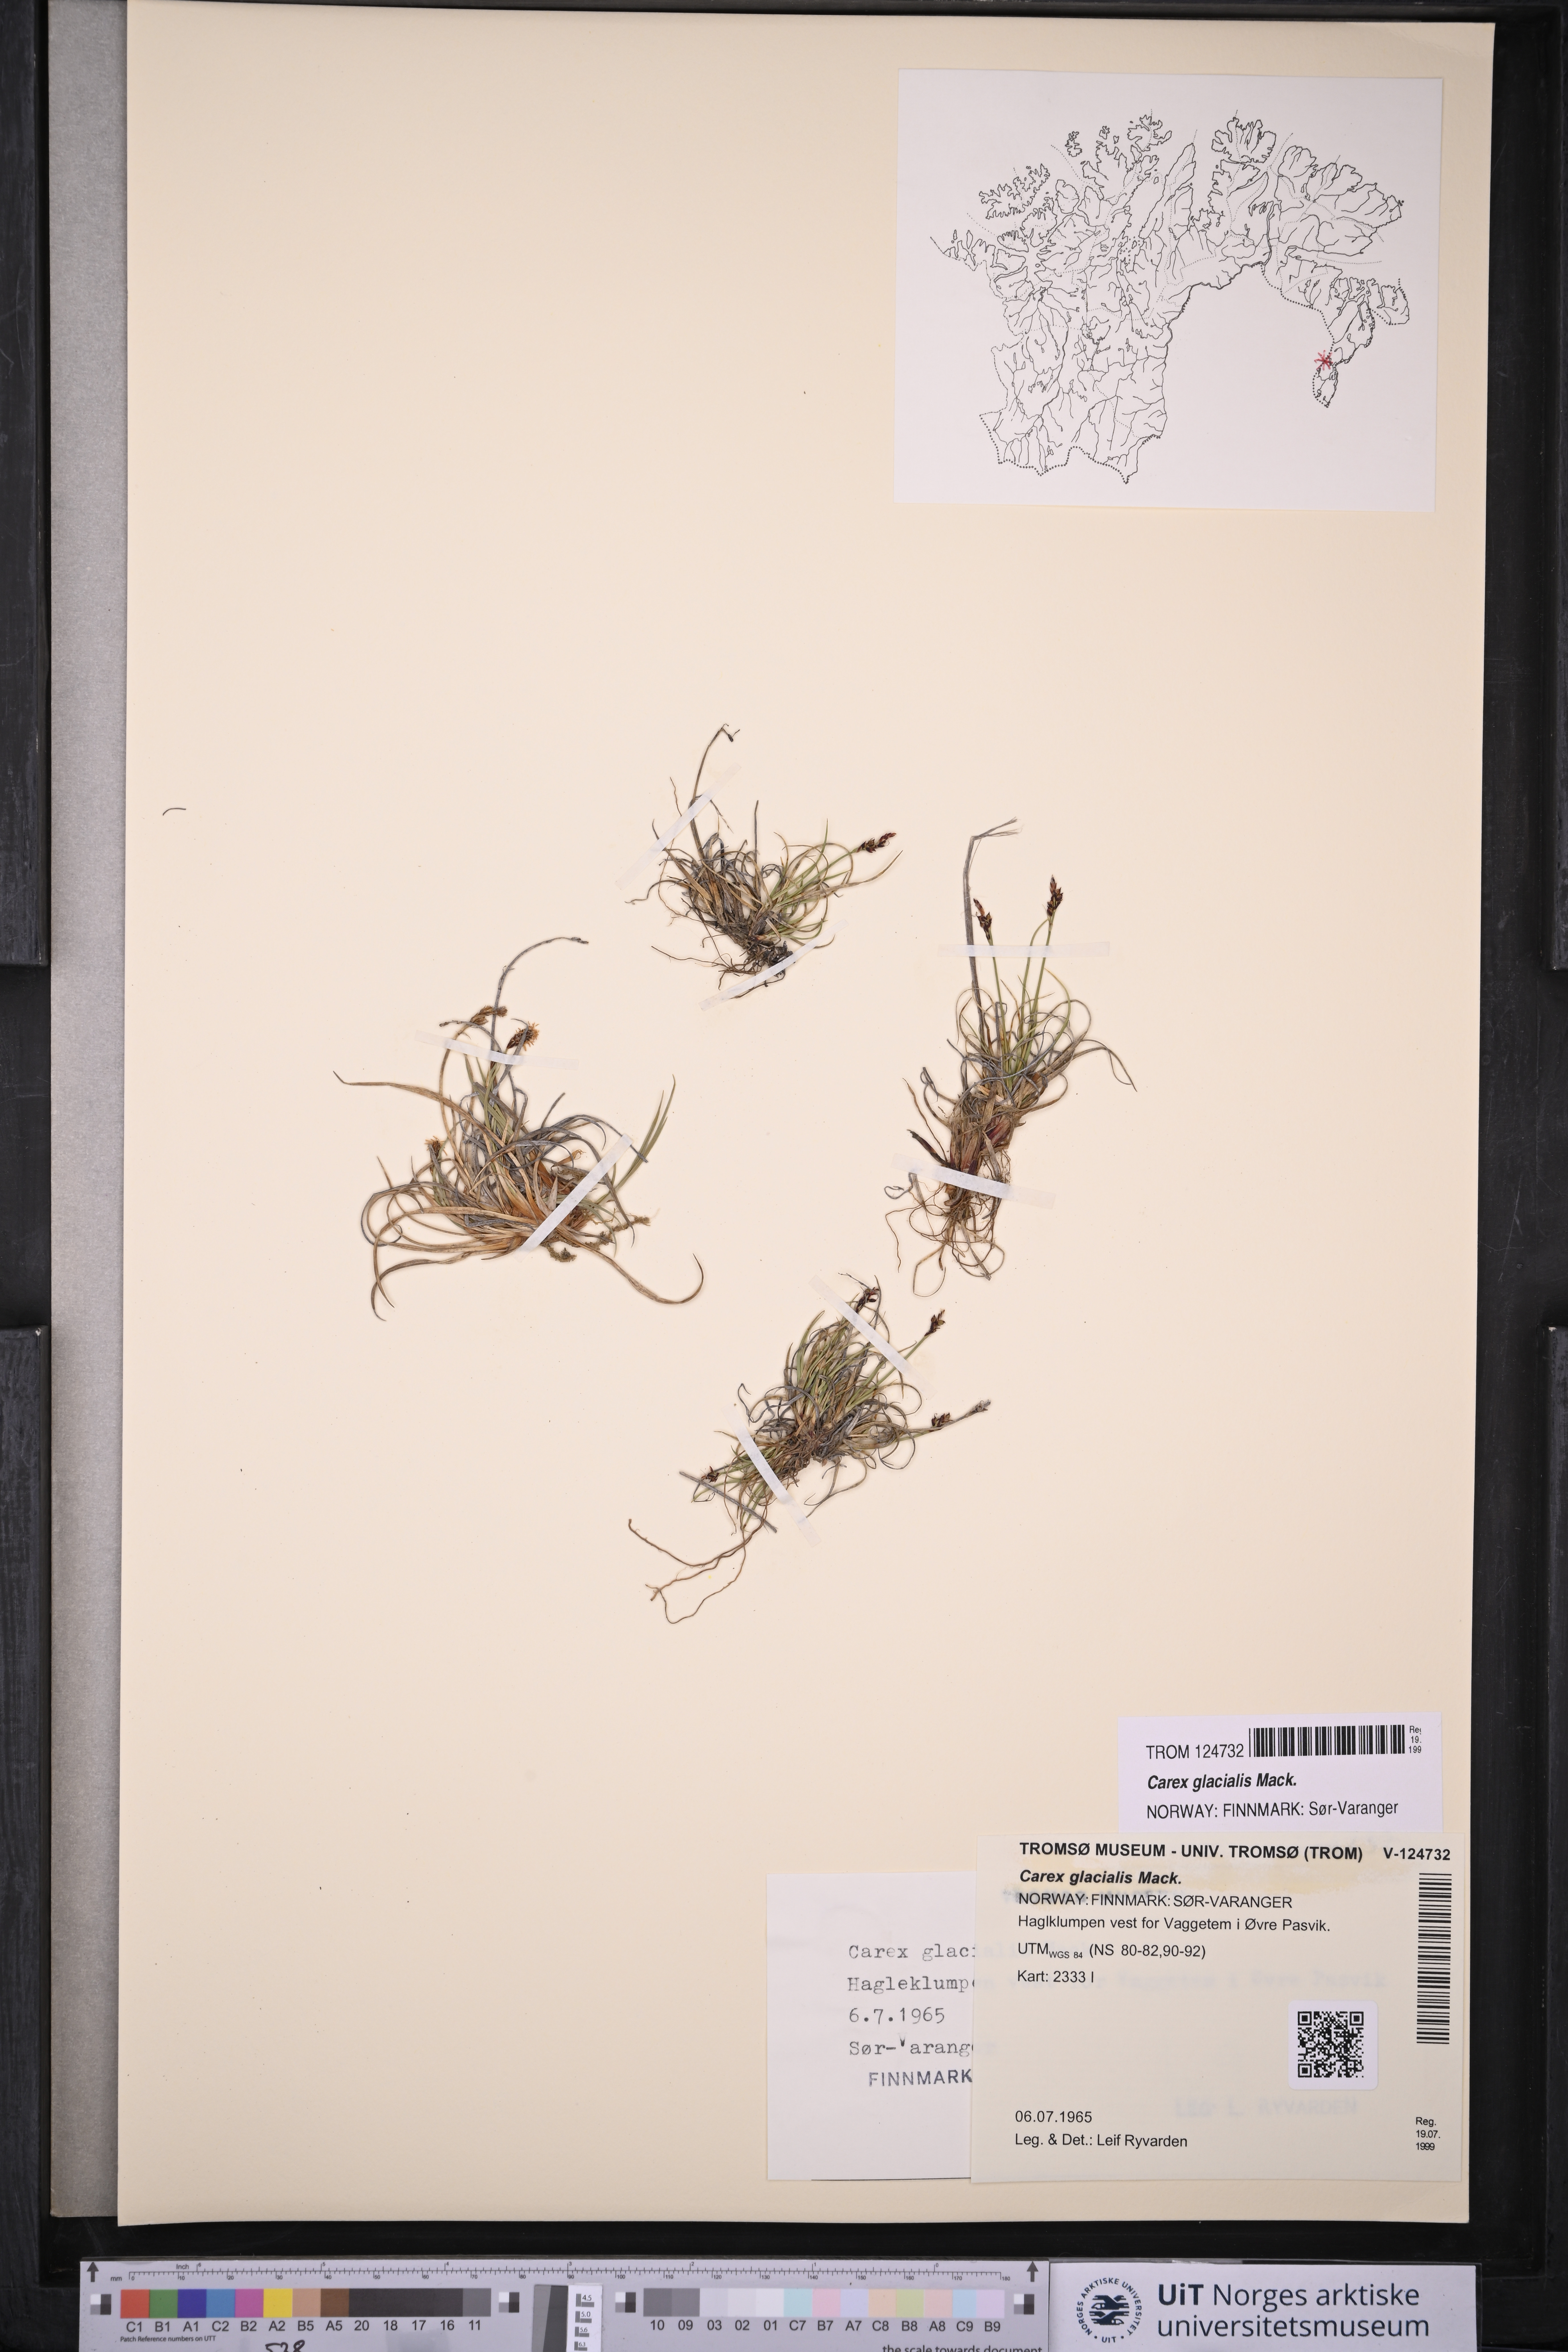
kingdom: Plantae
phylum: Tracheophyta
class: Liliopsida
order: Poales
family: Cyperaceae
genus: Carex
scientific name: Carex glacialis
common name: Newfoundland sedge
